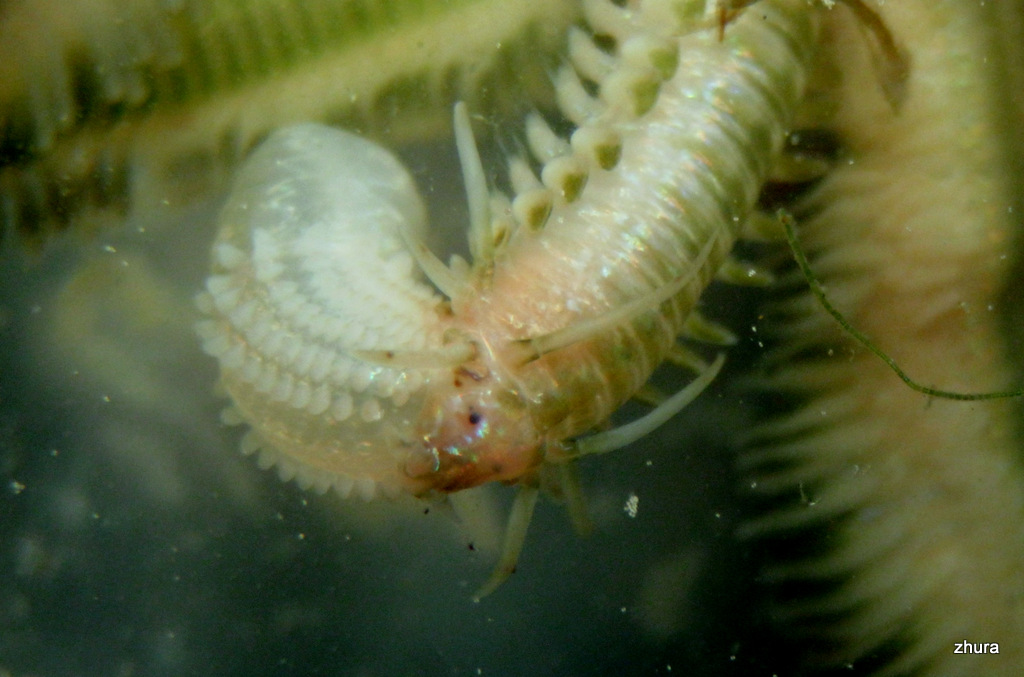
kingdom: Animalia
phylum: Annelida
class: Polychaeta
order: Phyllodocida
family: Phyllodocidae
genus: Phyllodoce
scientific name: Phyllodoce
